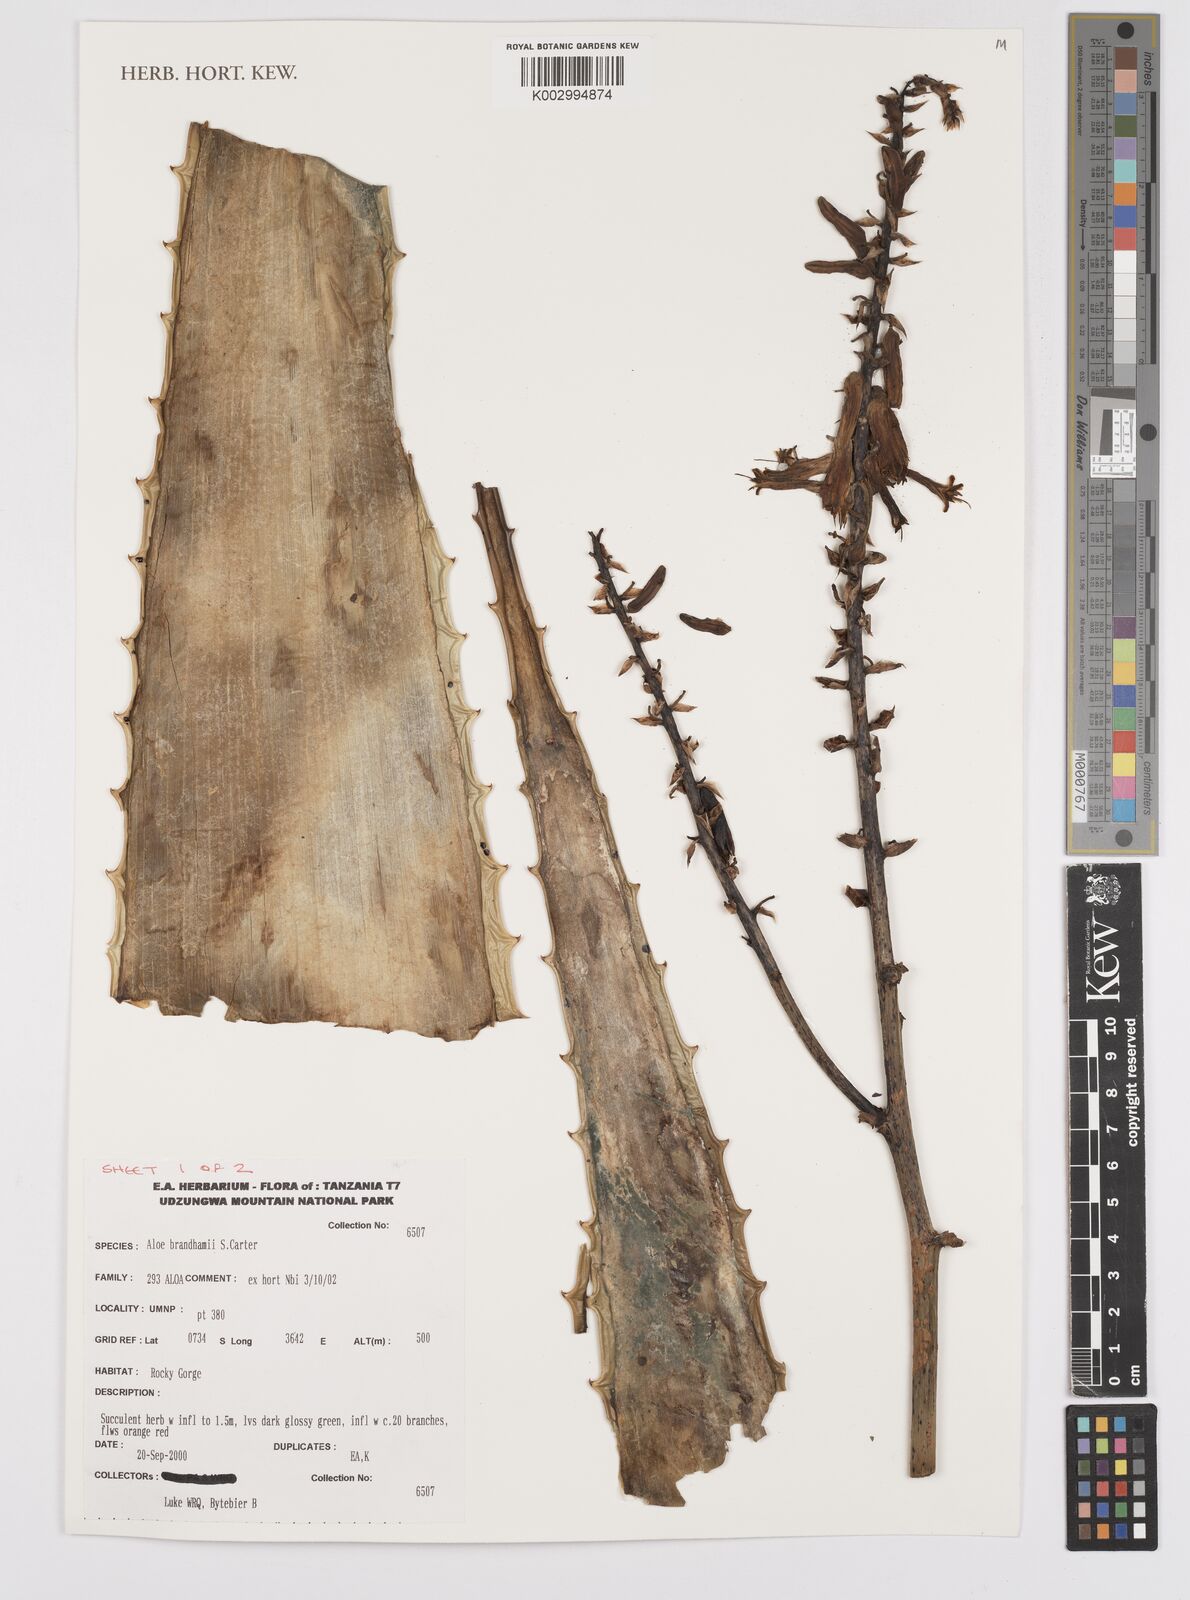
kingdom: Plantae
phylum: Tracheophyta
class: Liliopsida
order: Asparagales
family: Asphodelaceae
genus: Aloe
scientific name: Aloe brandhamii
